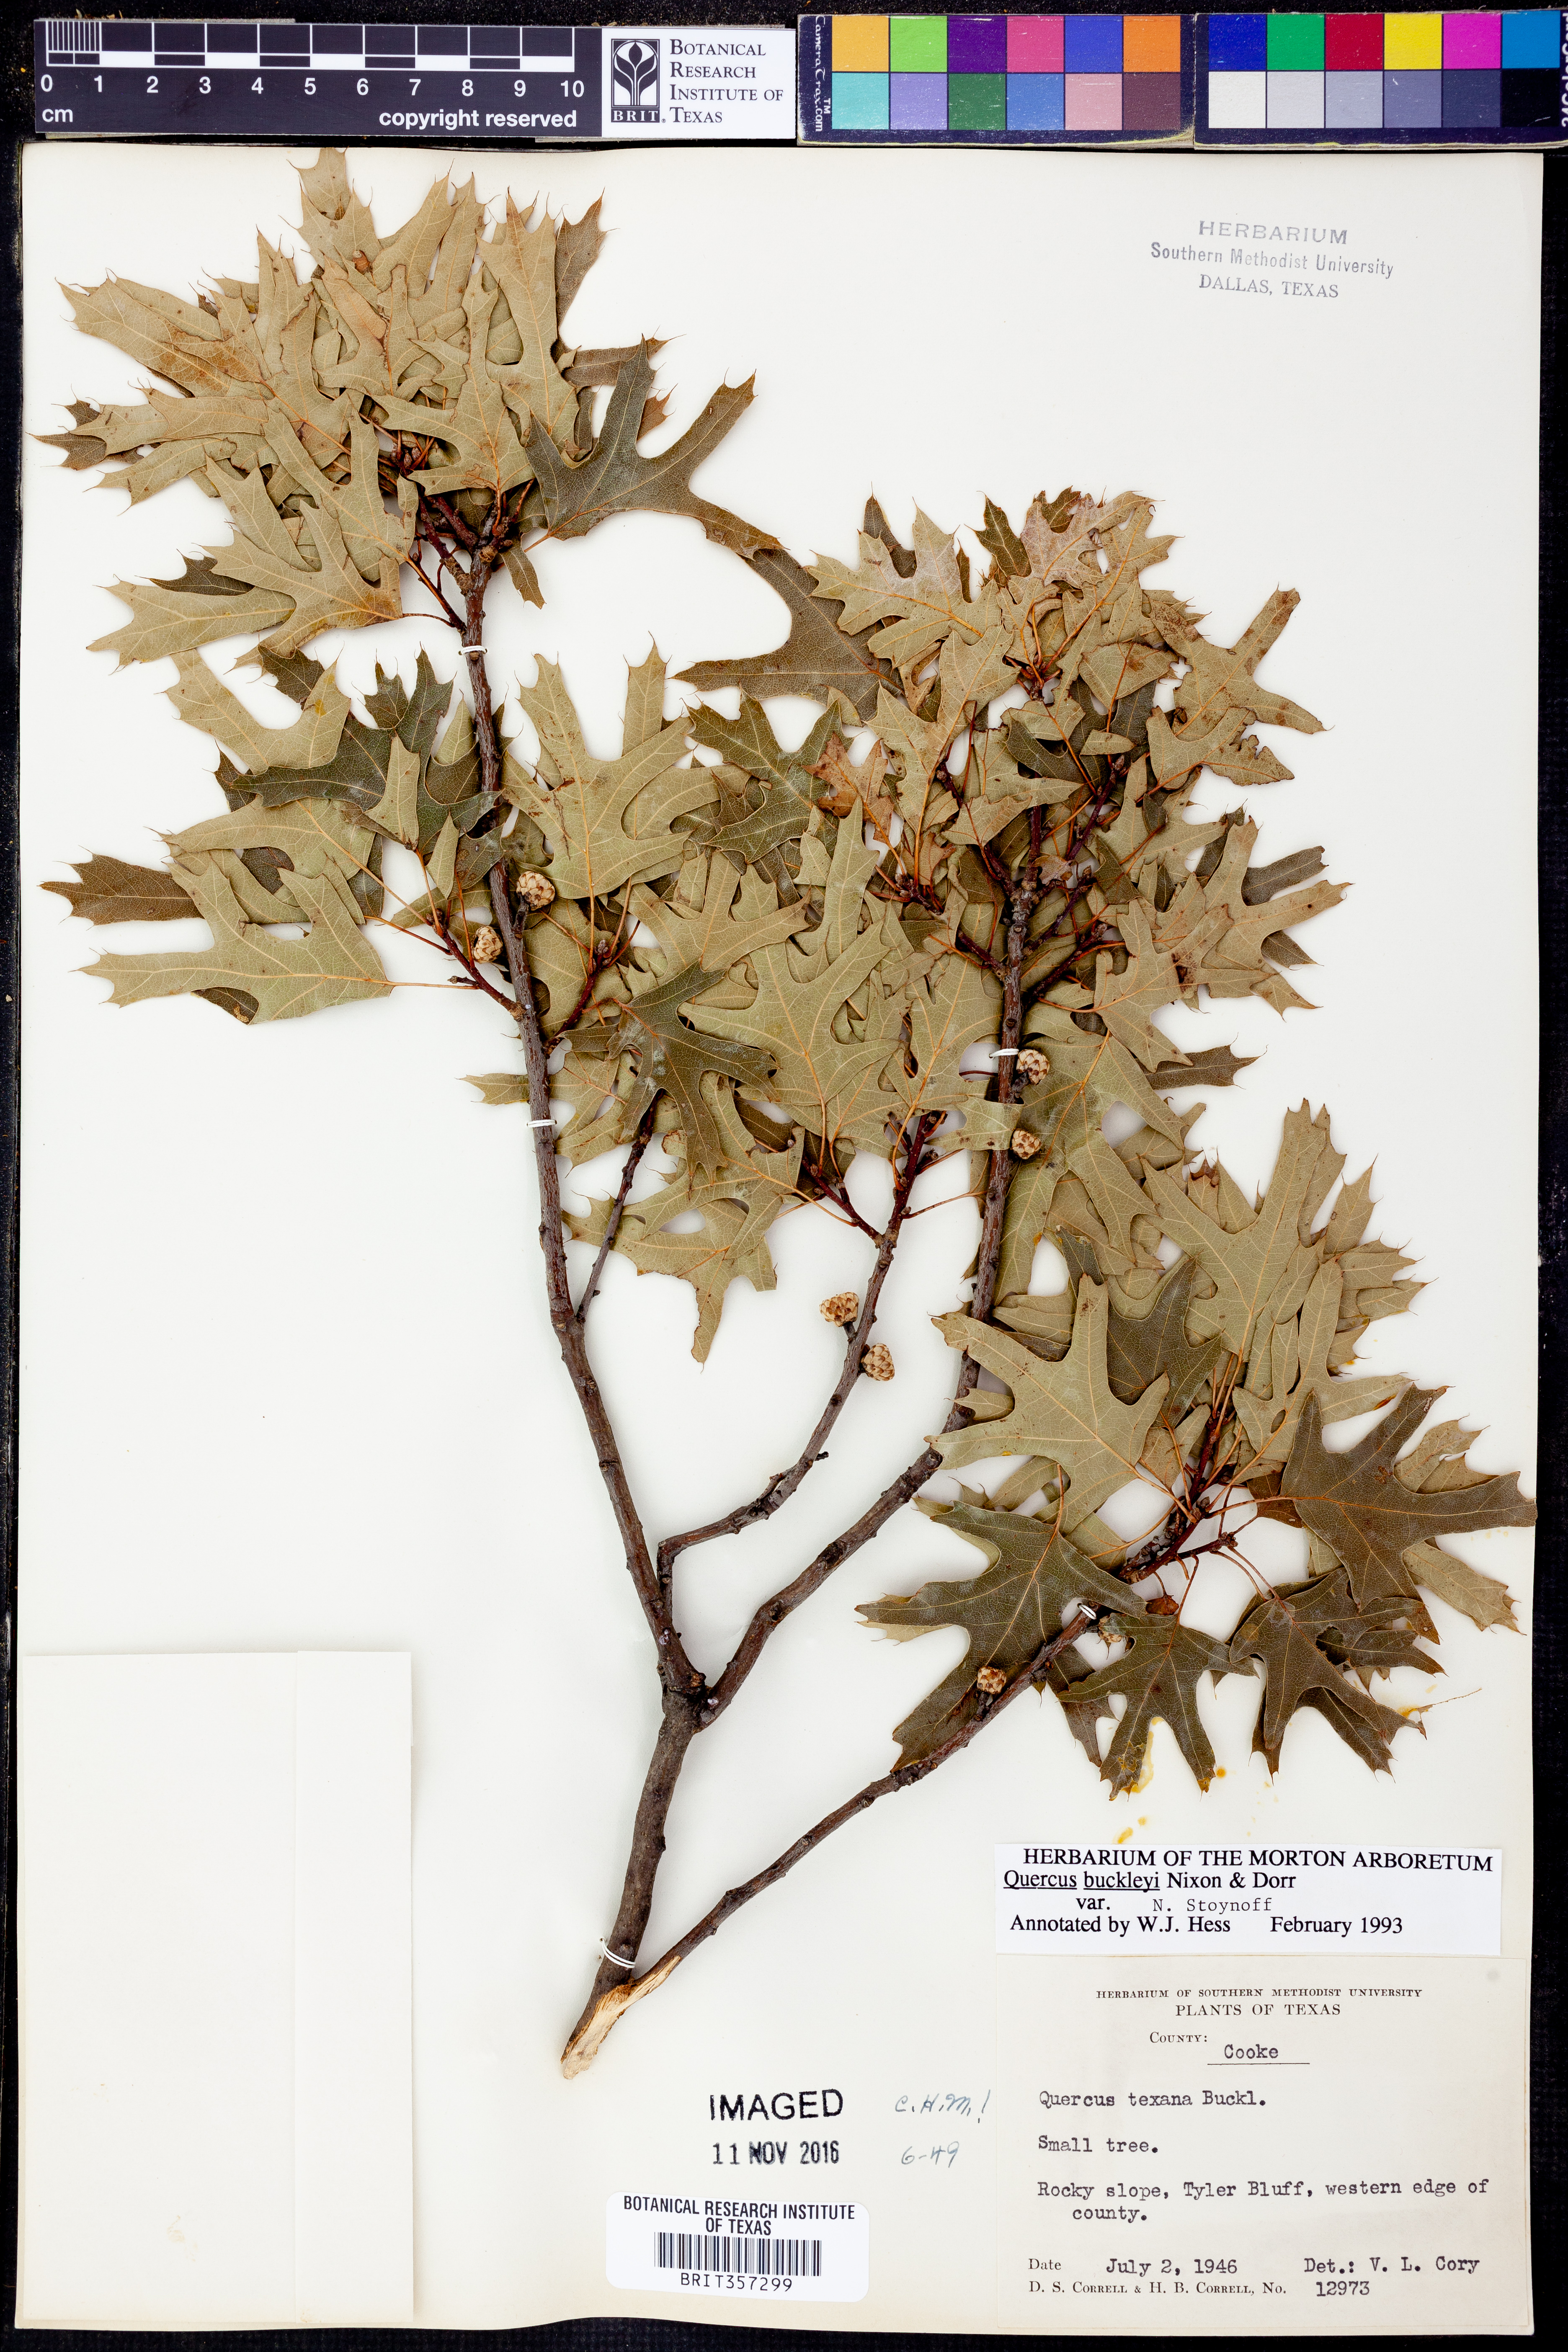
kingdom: Plantae
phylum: Tracheophyta
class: Magnoliopsida
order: Fagales
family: Fagaceae
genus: Quercus
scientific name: Quercus buckleyi
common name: Buckley oak
